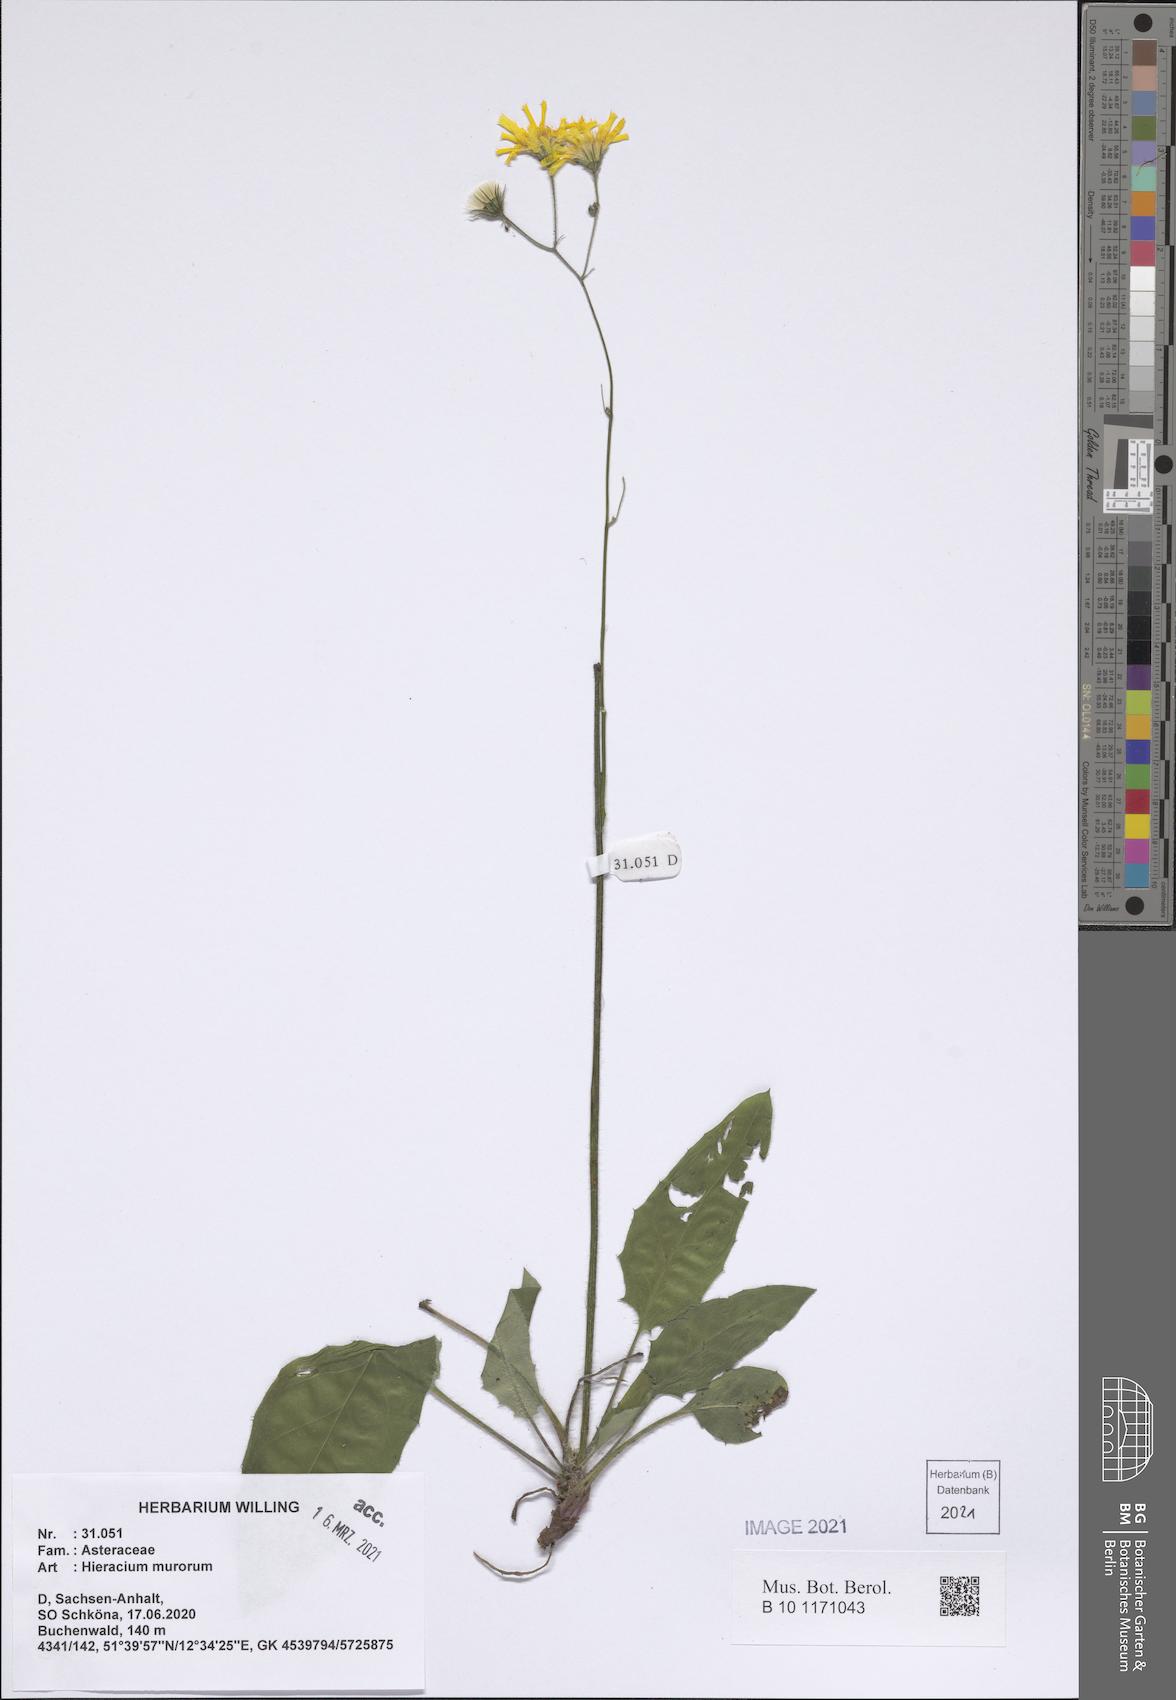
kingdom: Plantae
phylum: Tracheophyta
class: Magnoliopsida
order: Asterales
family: Asteraceae
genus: Hieracium
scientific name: Hieracium murorum
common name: Wall hawkweed
